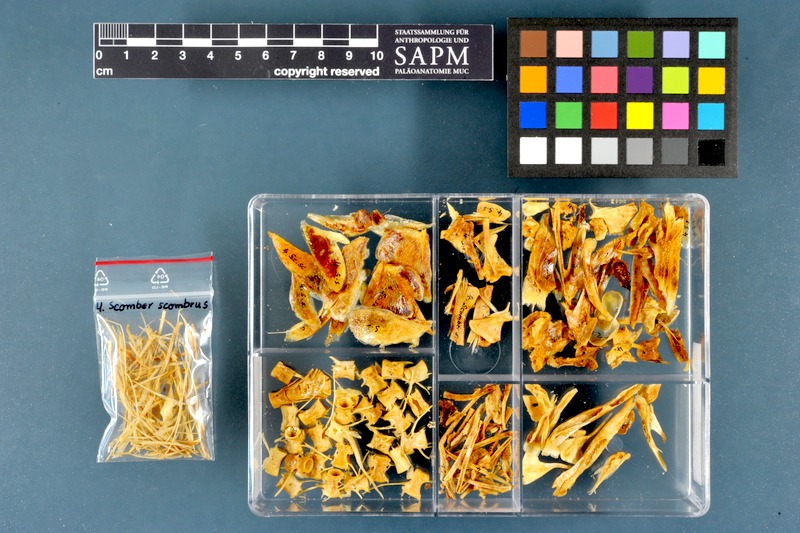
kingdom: Animalia
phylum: Chordata
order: Perciformes
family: Scombridae
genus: Scomber
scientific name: Scomber scombrus
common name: Mackerel
